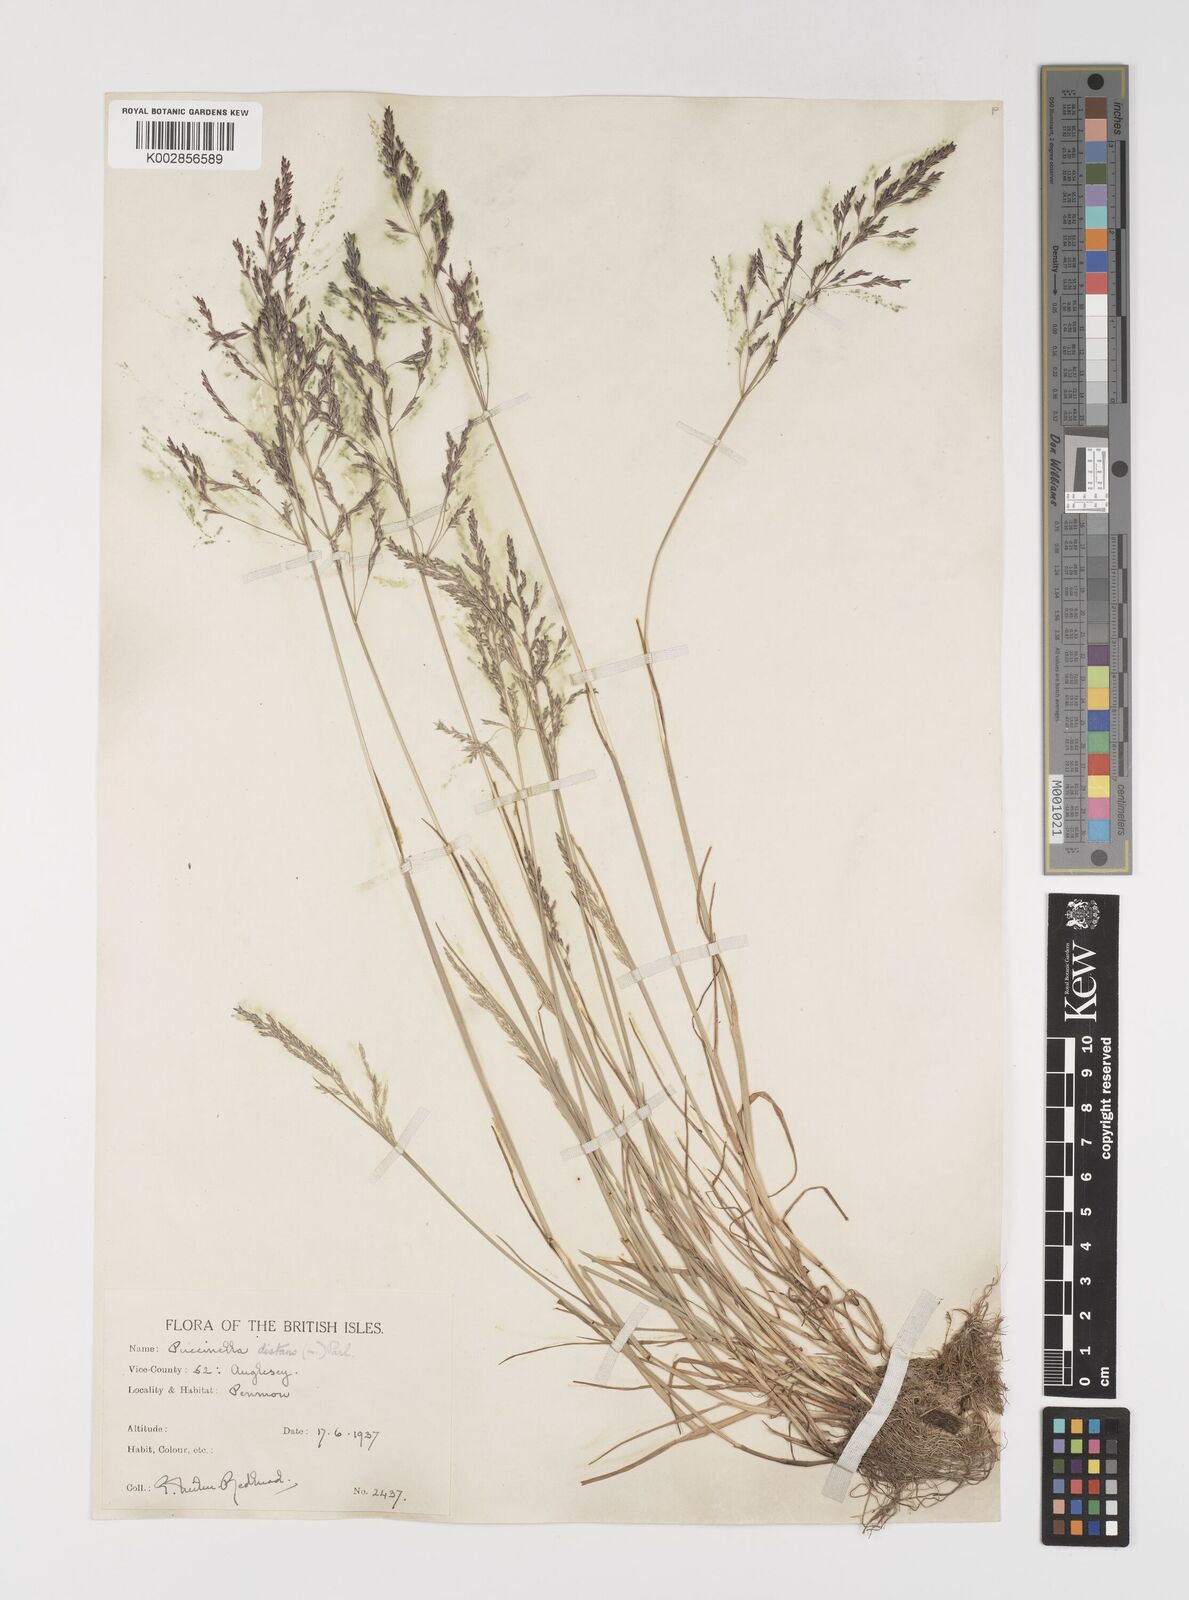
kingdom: Plantae
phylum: Tracheophyta
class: Liliopsida
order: Poales
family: Poaceae
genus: Puccinellia
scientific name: Puccinellia distans
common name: Weeping alkaligrass
